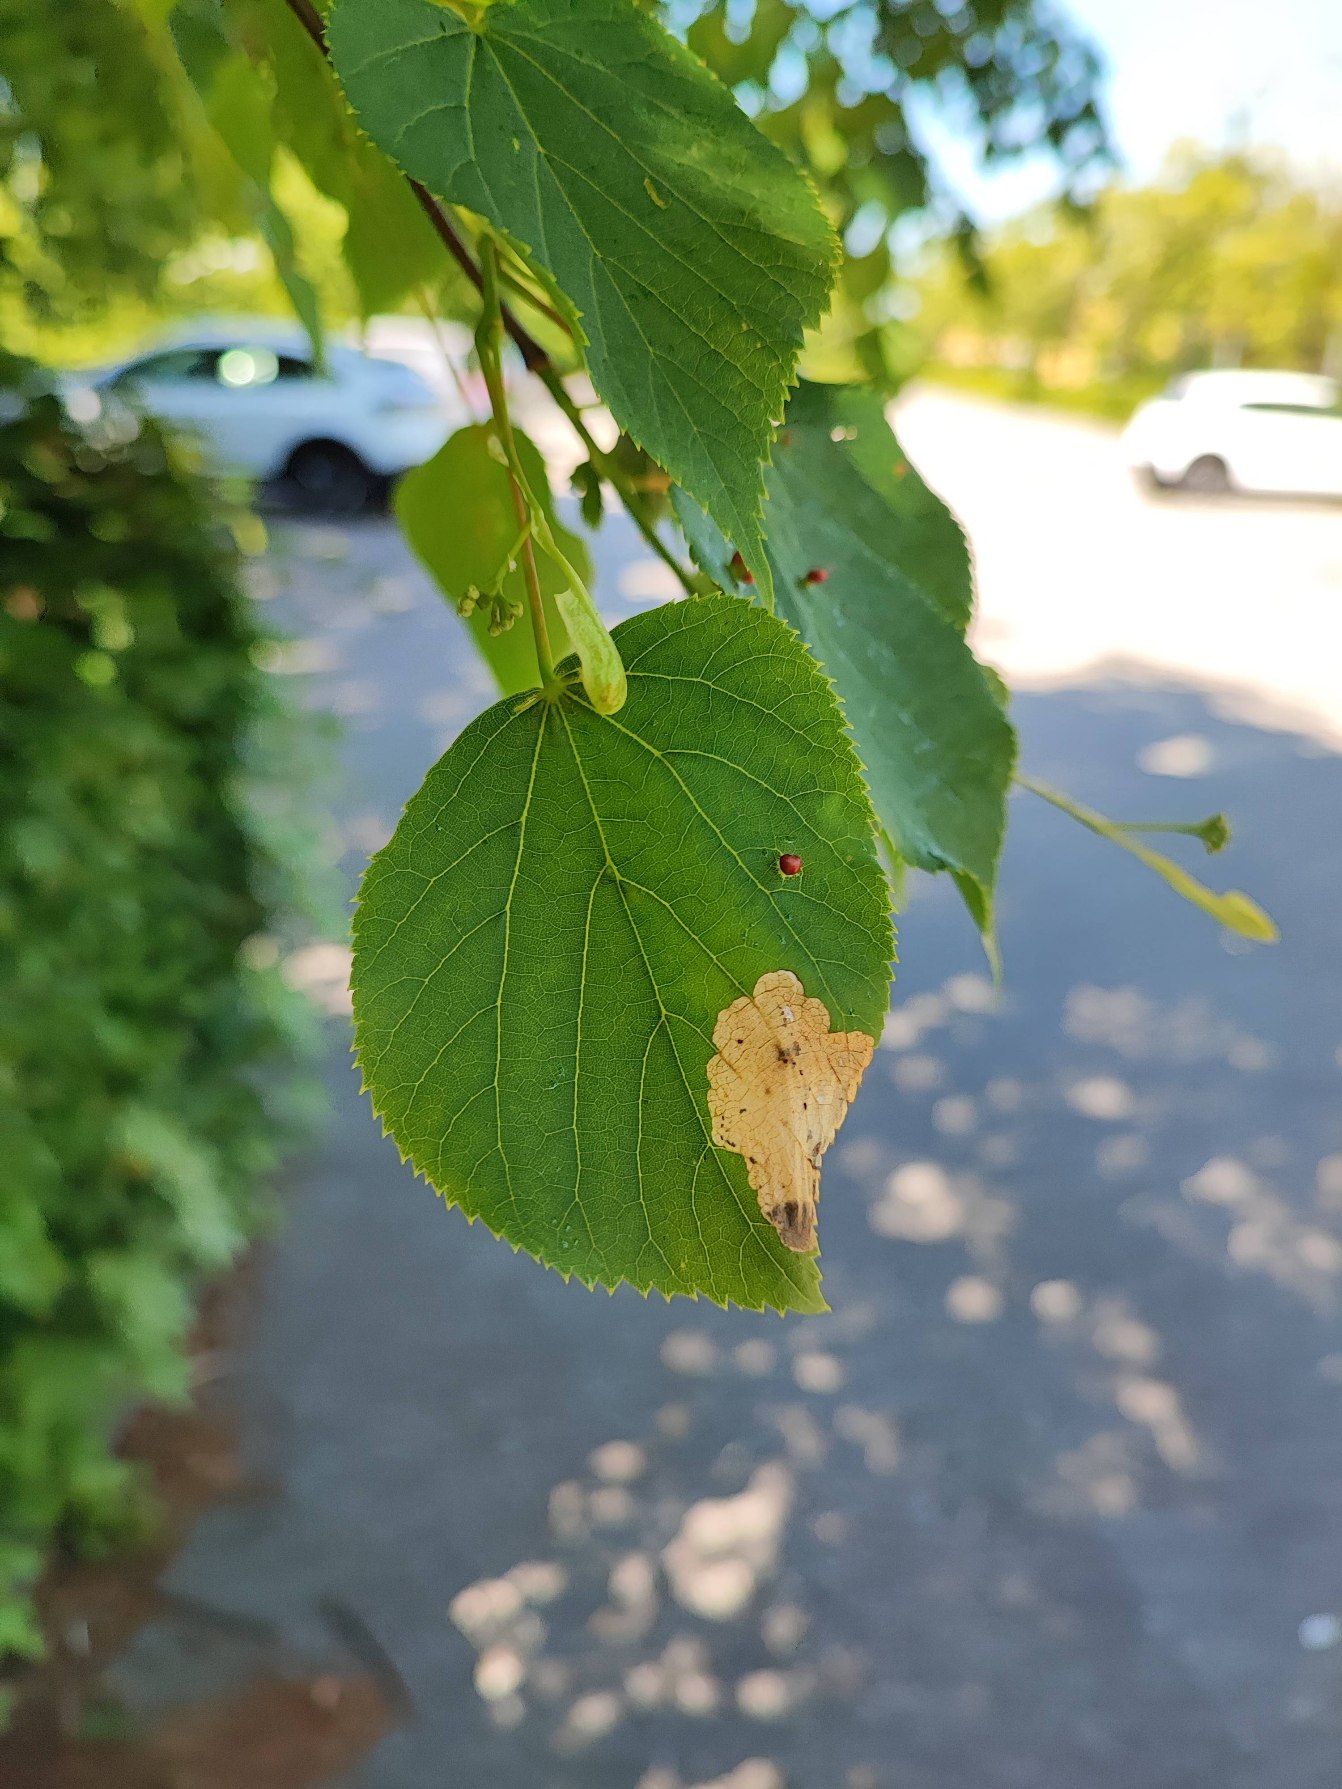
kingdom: Animalia
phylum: Arthropoda
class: Insecta
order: Hymenoptera
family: Tenthredinidae
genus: Parna
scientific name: Parna apicalis
